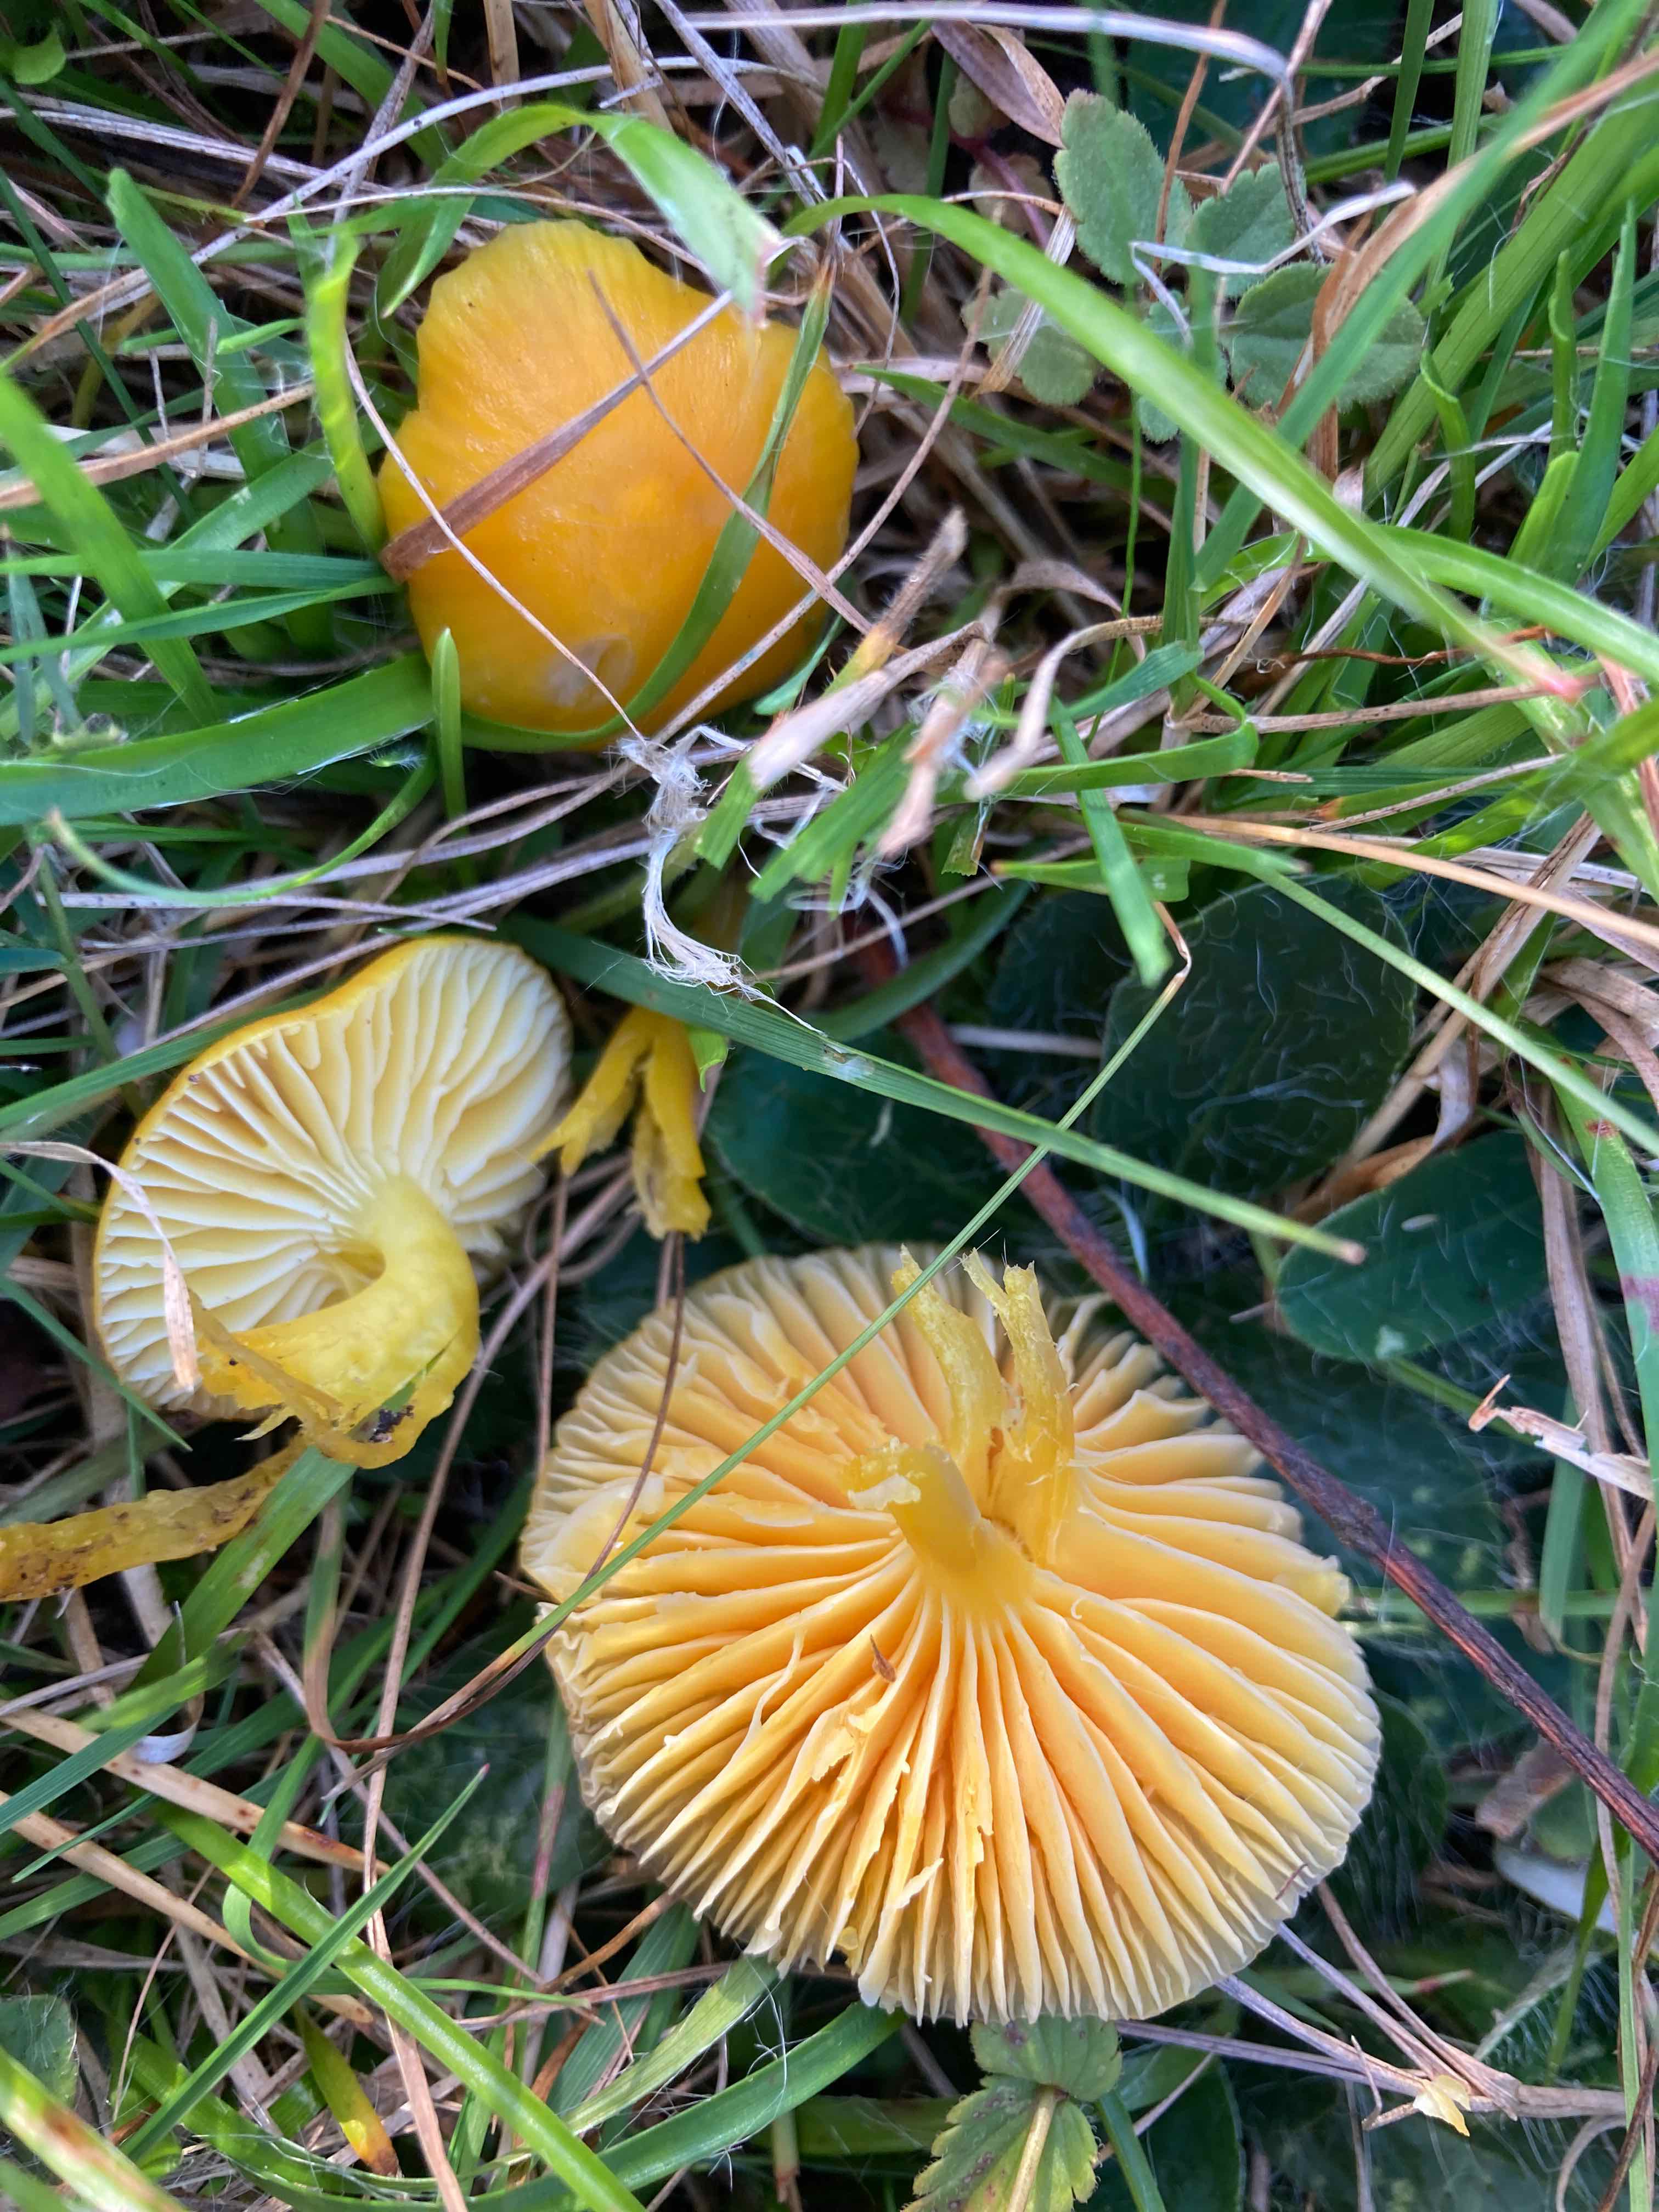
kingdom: Fungi
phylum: Basidiomycota
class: Agaricomycetes
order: Agaricales
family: Hygrophoraceae
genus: Hygrocybe
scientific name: Hygrocybe ceracea
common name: voksgul vokshat
